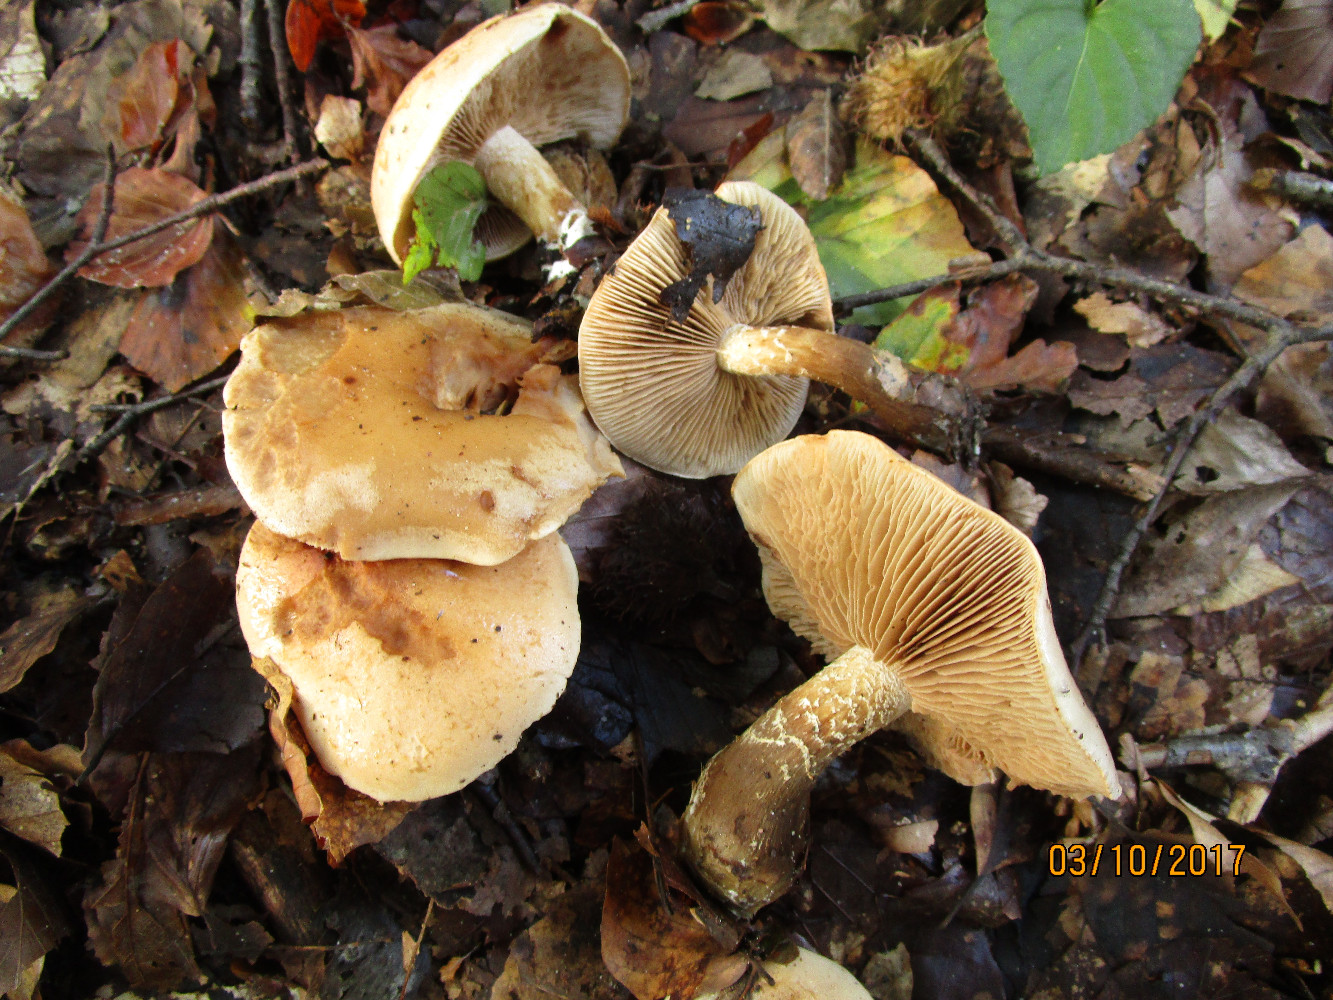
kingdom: Fungi
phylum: Basidiomycota
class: Agaricomycetes
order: Agaricales
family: Hymenogastraceae
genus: Hebeloma
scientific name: Hebeloma laterinum
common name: kakao-tåreblad
